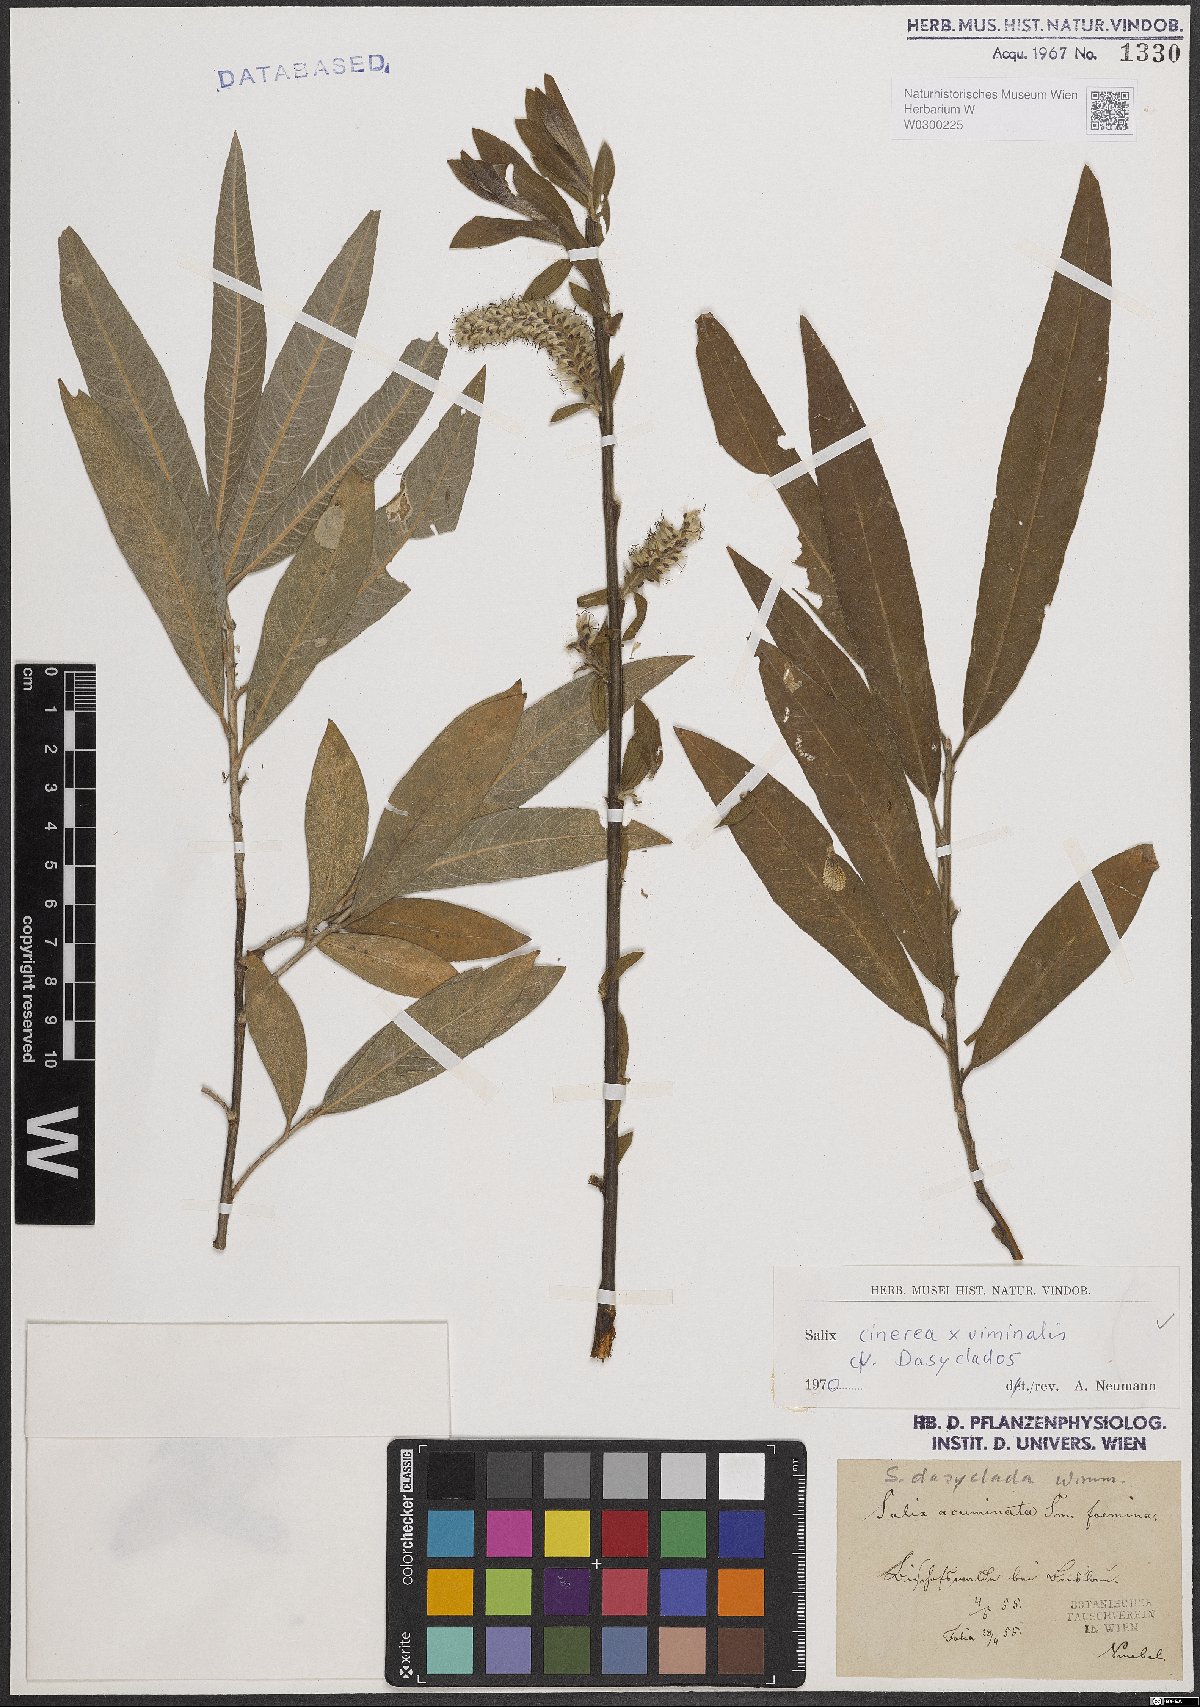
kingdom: Plantae
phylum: Tracheophyta
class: Magnoliopsida
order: Malpighiales
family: Salicaceae
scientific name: Salicaceae
